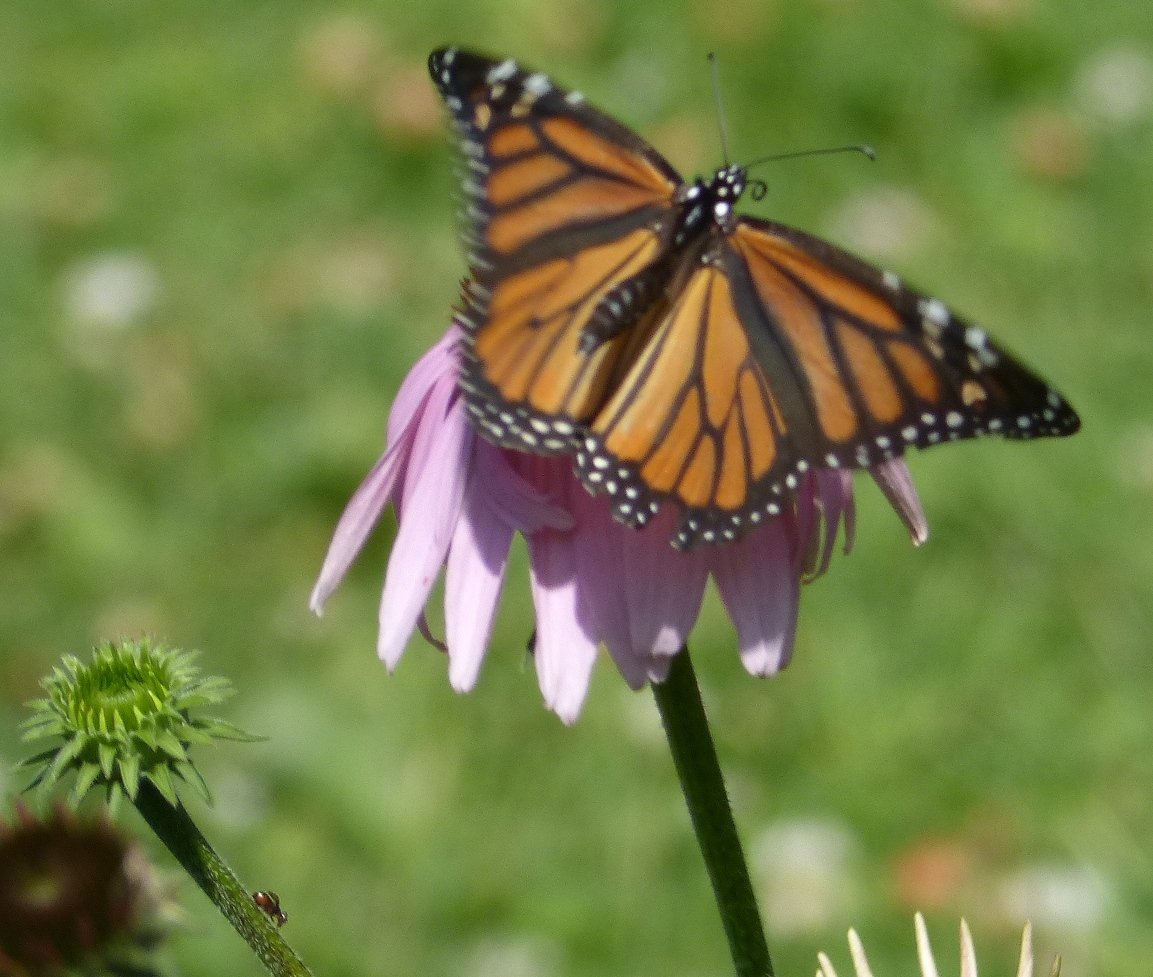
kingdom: Animalia
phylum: Arthropoda
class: Insecta
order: Lepidoptera
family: Nymphalidae
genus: Danaus
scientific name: Danaus plexippus
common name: Monarch
